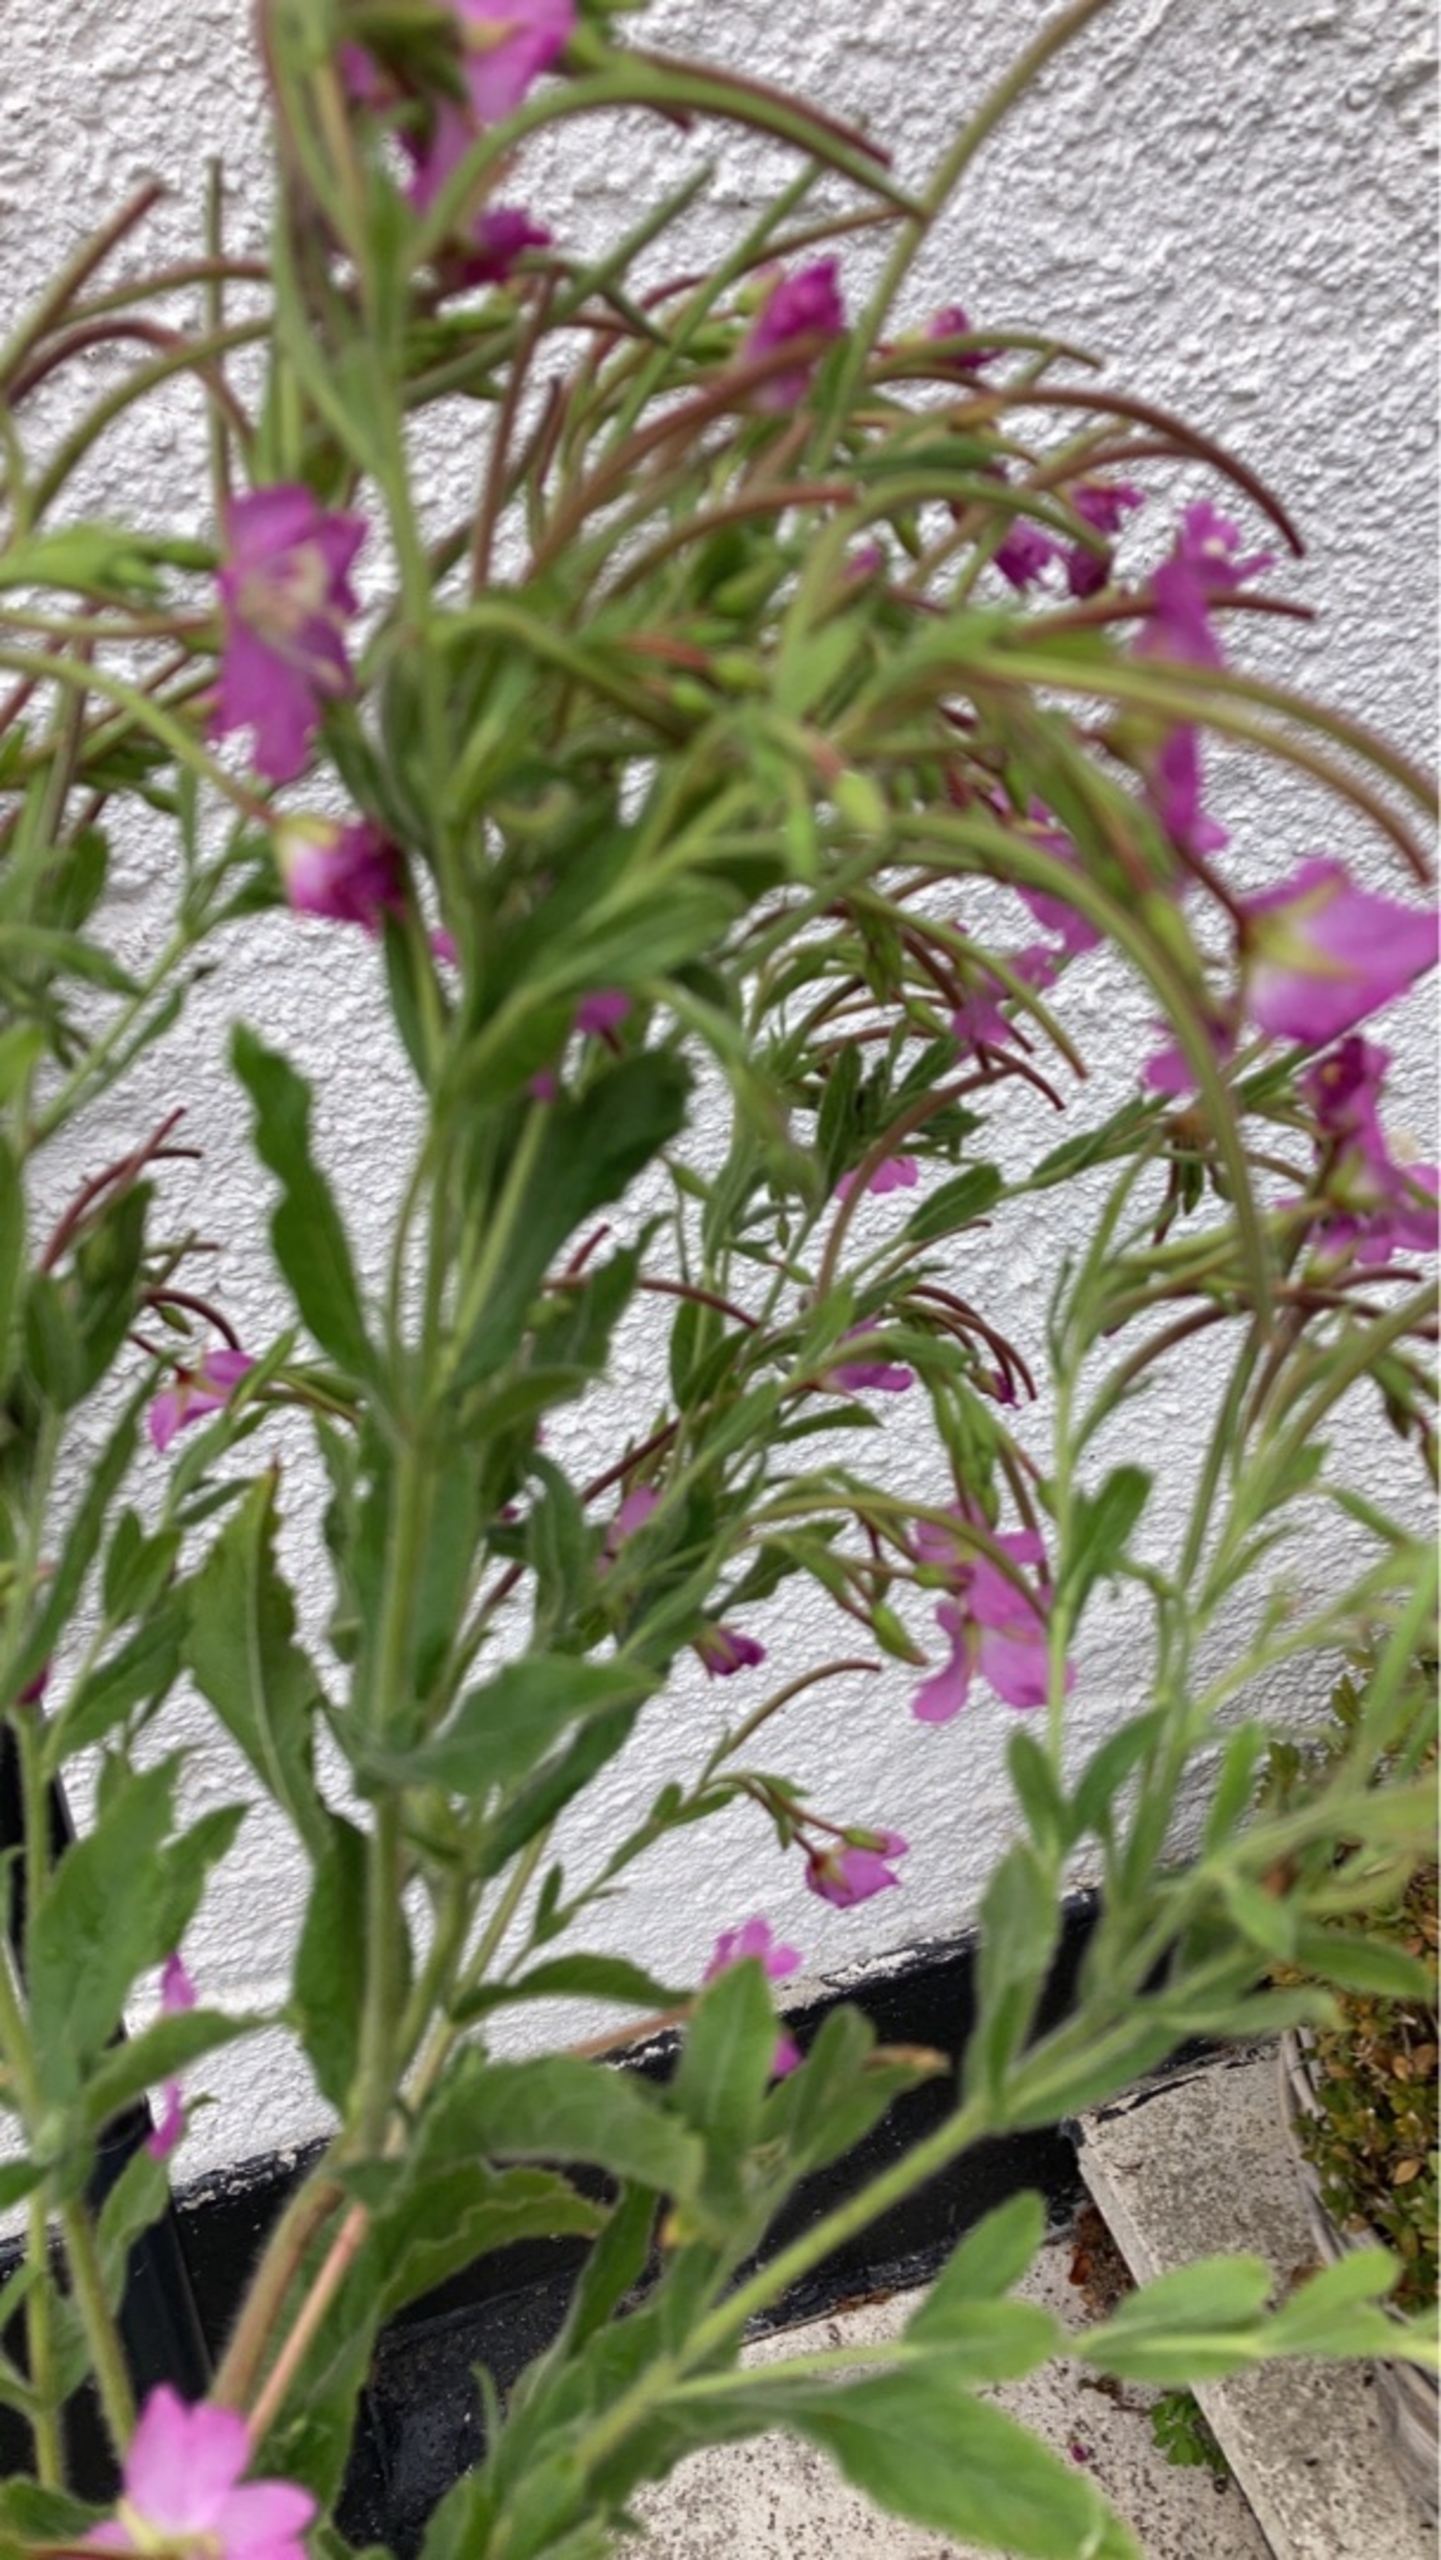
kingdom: Plantae
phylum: Tracheophyta
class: Magnoliopsida
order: Myrtales
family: Onagraceae
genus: Epilobium
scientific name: Epilobium hirsutum
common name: Lådden dueurt
